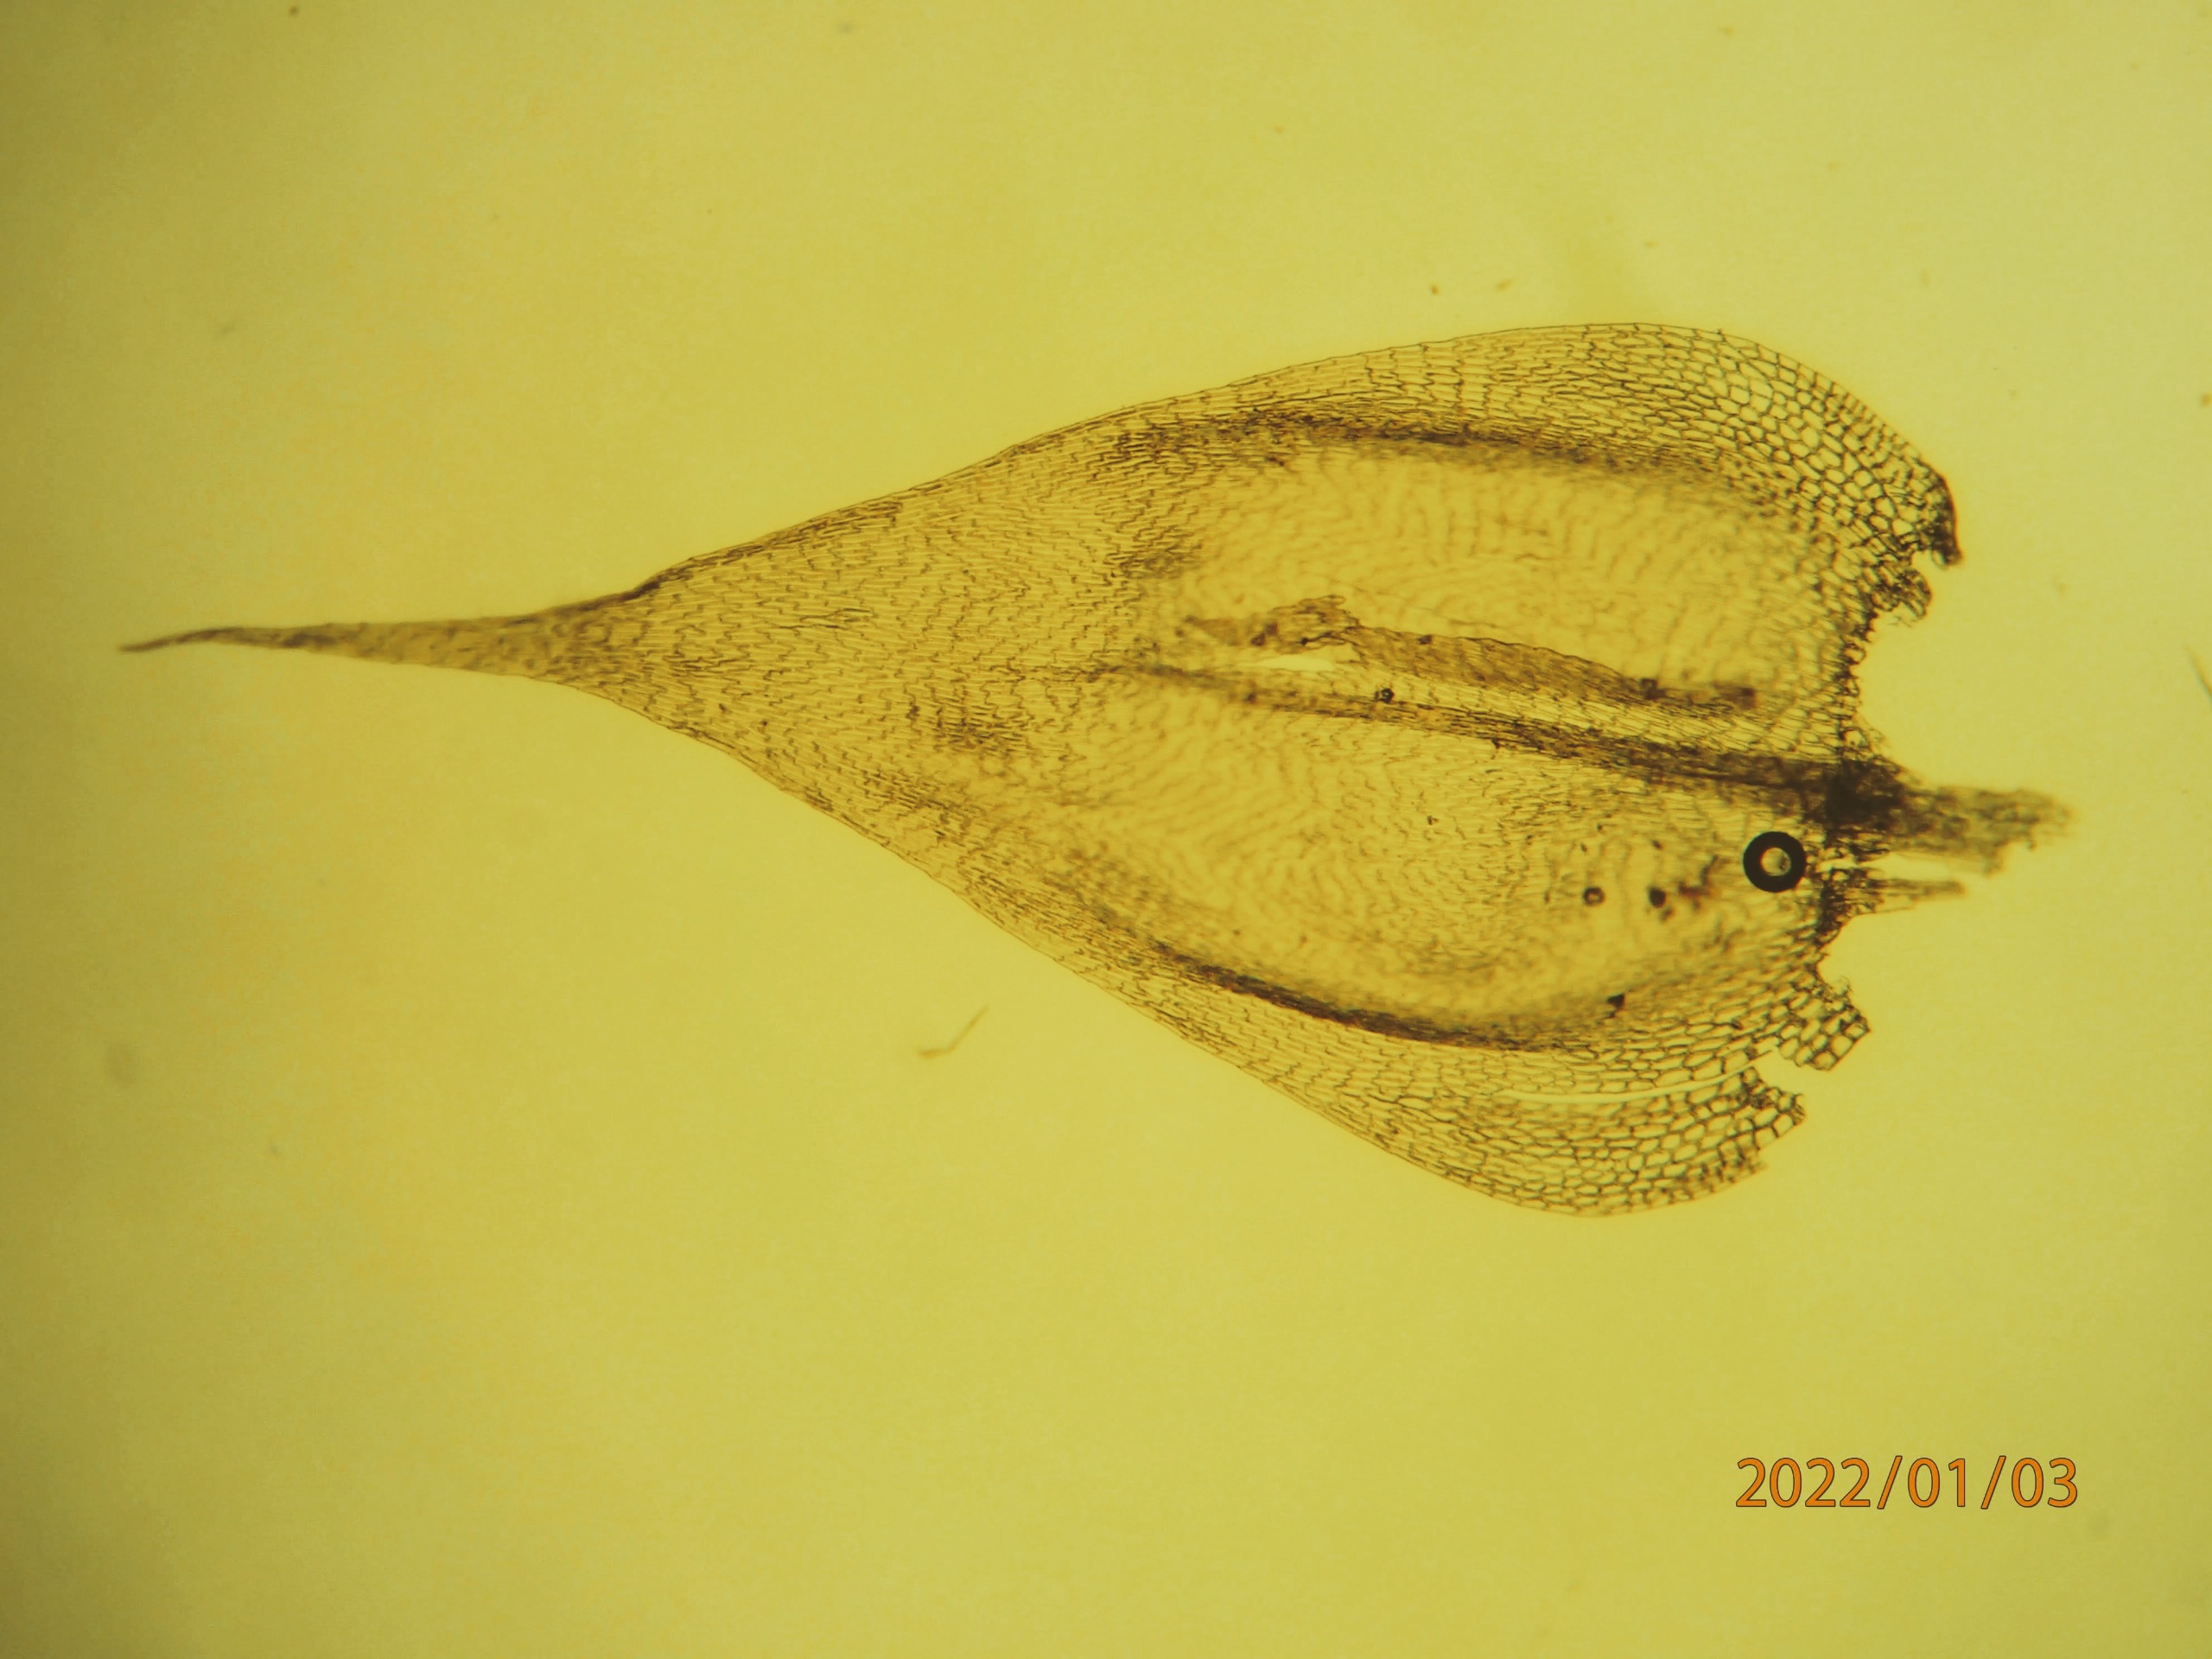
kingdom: Plantae
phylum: Bryophyta
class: Bryopsida
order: Hypnales
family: Brachytheciaceae
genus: Brachythecium
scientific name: Brachythecium albicans
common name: Hvidlig kortkapsel
